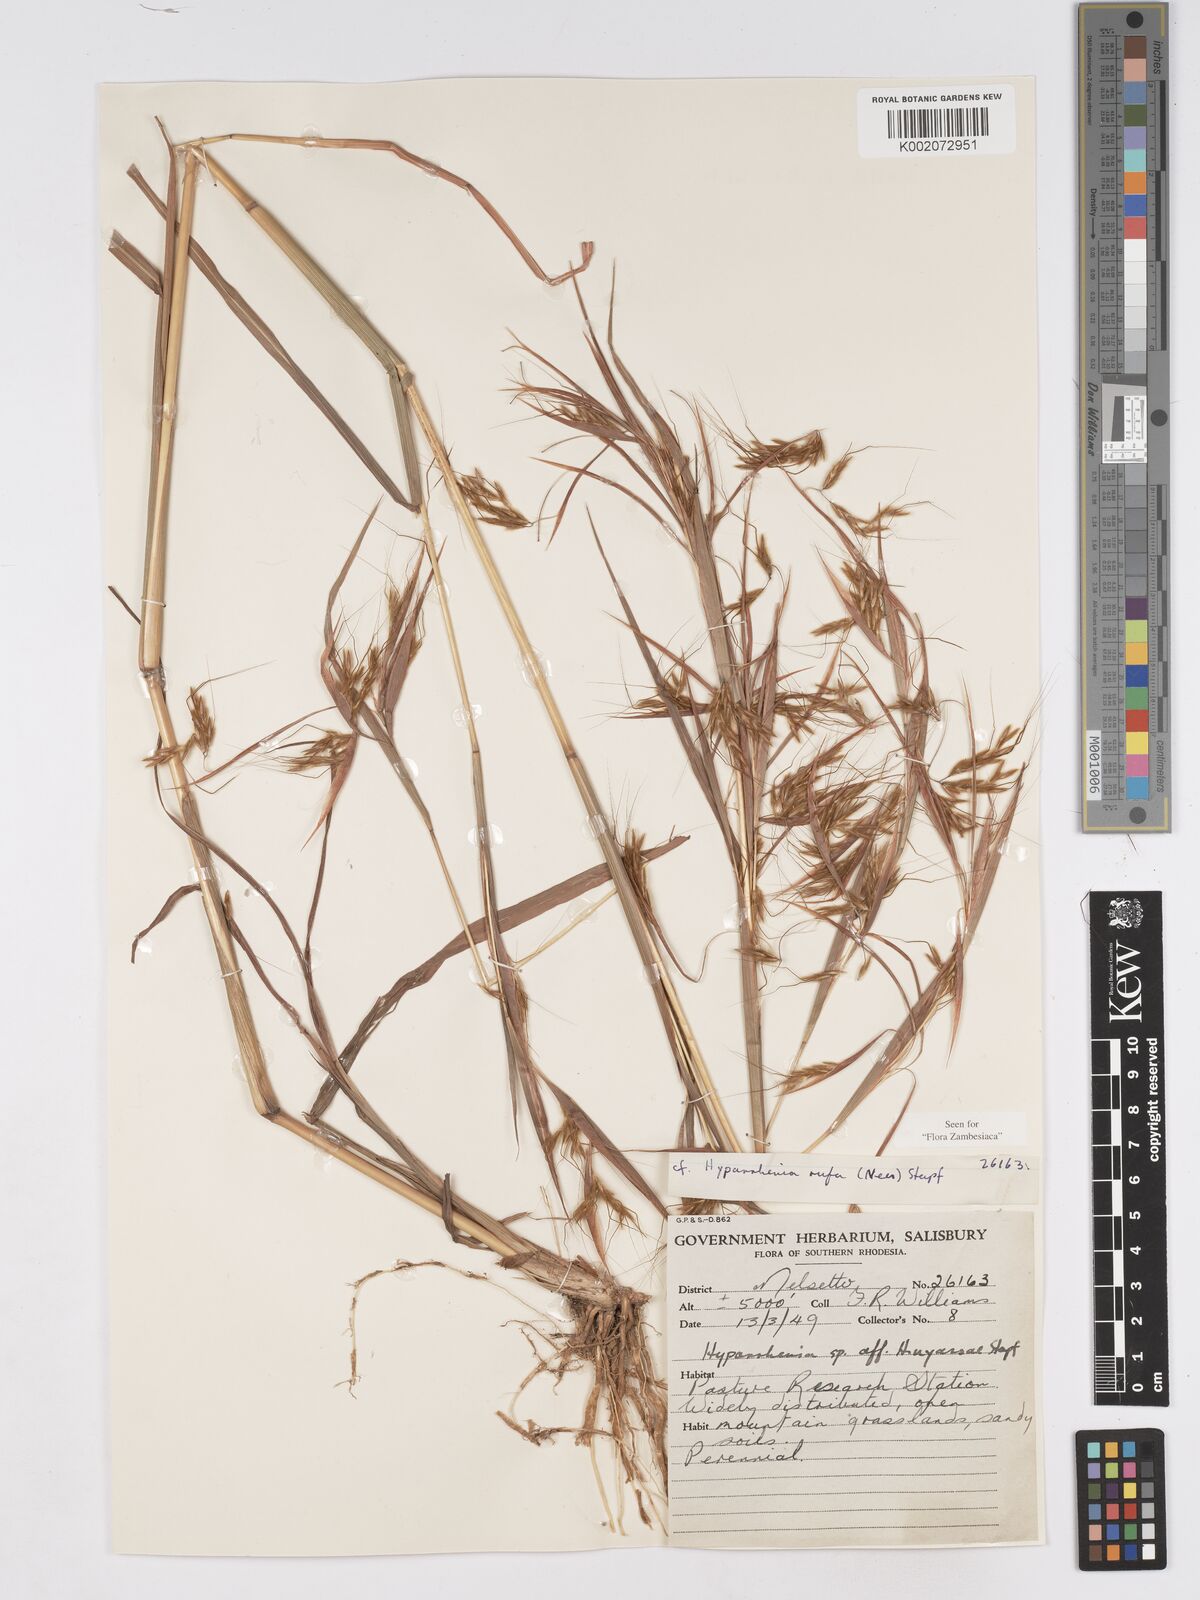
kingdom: Plantae
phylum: Tracheophyta
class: Liliopsida
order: Poales
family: Poaceae
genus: Hyparrhenia
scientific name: Hyparrhenia rufa
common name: Jaraguagrass
